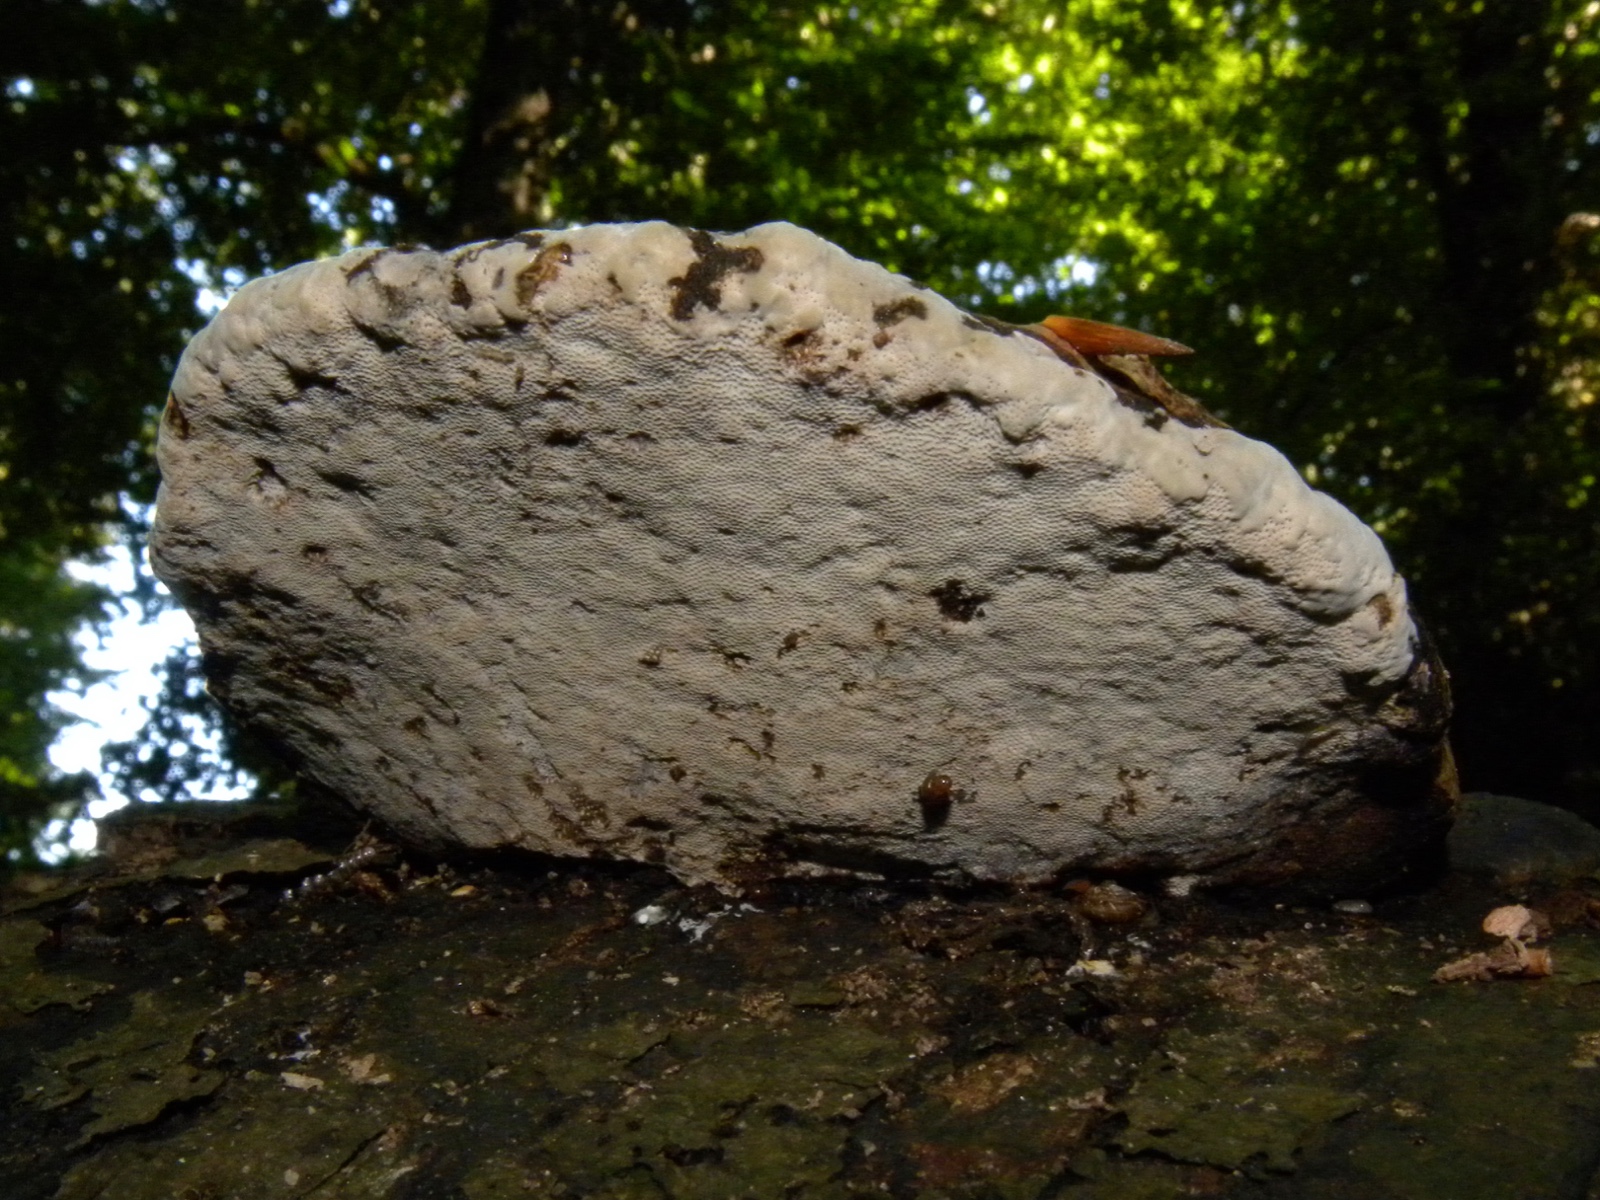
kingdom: Fungi
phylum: Basidiomycota
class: Agaricomycetes
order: Polyporales
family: Polyporaceae
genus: Fomes
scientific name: Fomes fomentarius
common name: tøndersvamp
